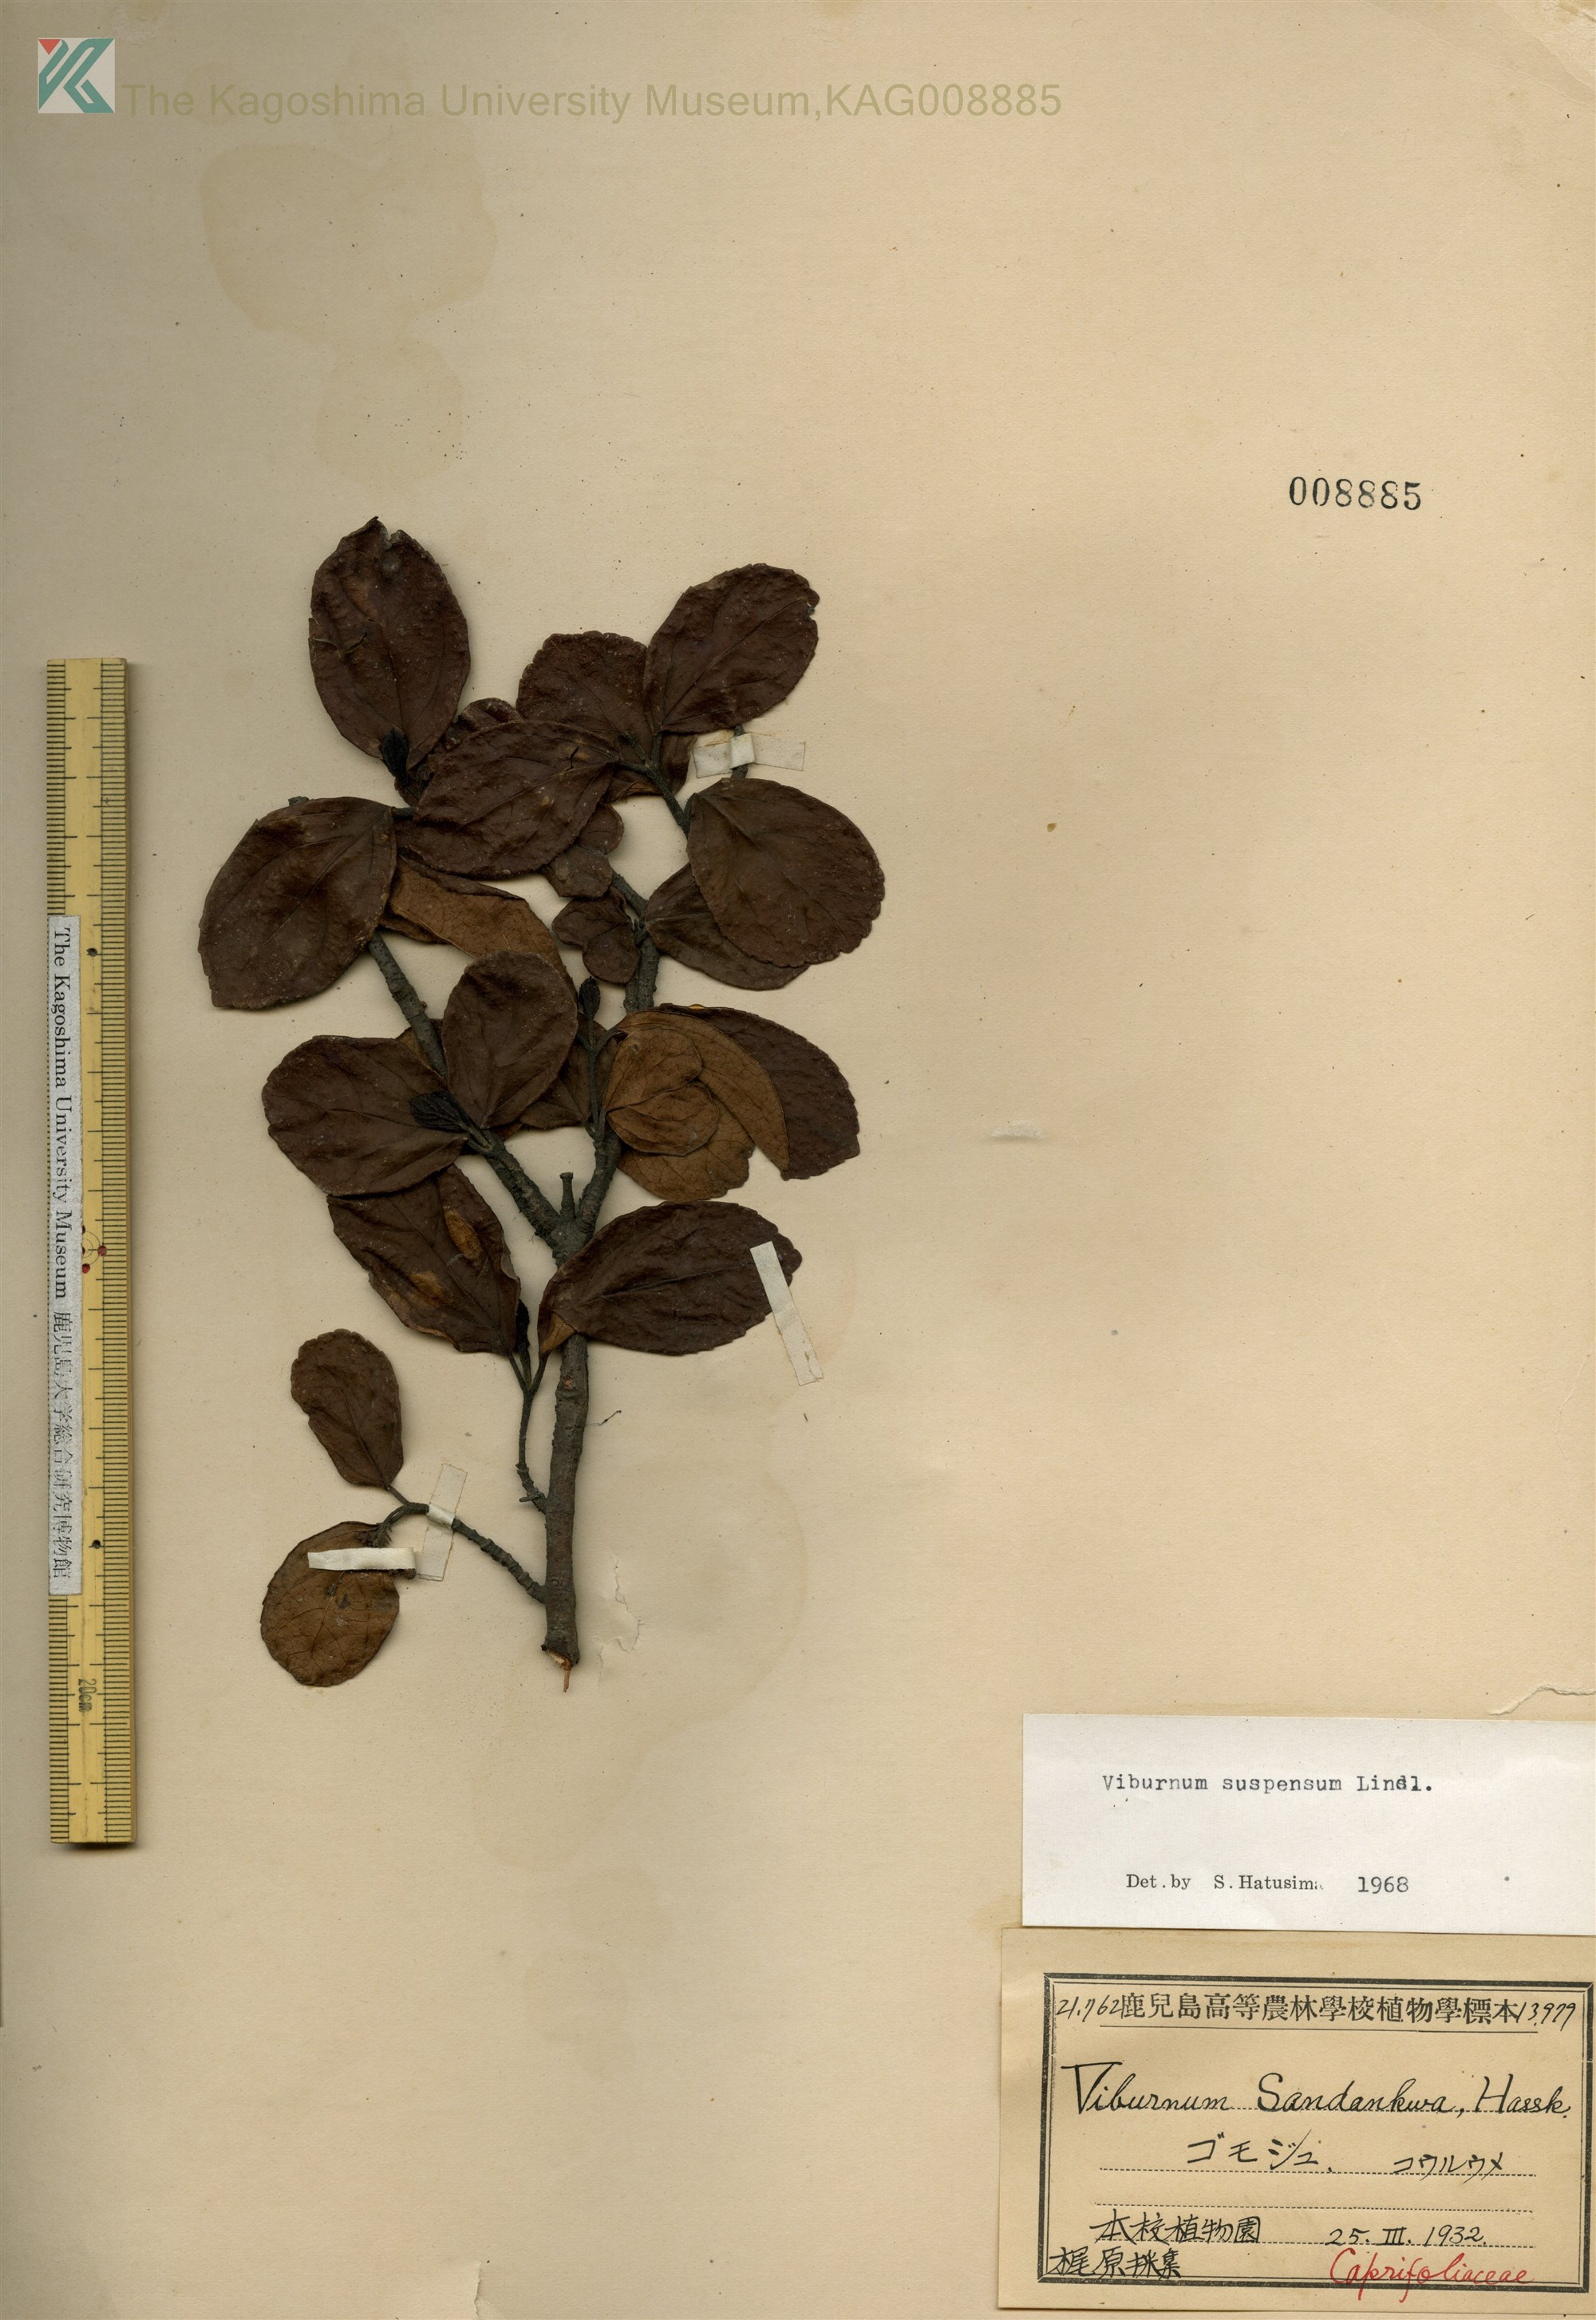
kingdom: Plantae
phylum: Tracheophyta
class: Magnoliopsida
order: Dipsacales
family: Viburnaceae
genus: Viburnum
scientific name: Viburnum suspensum
